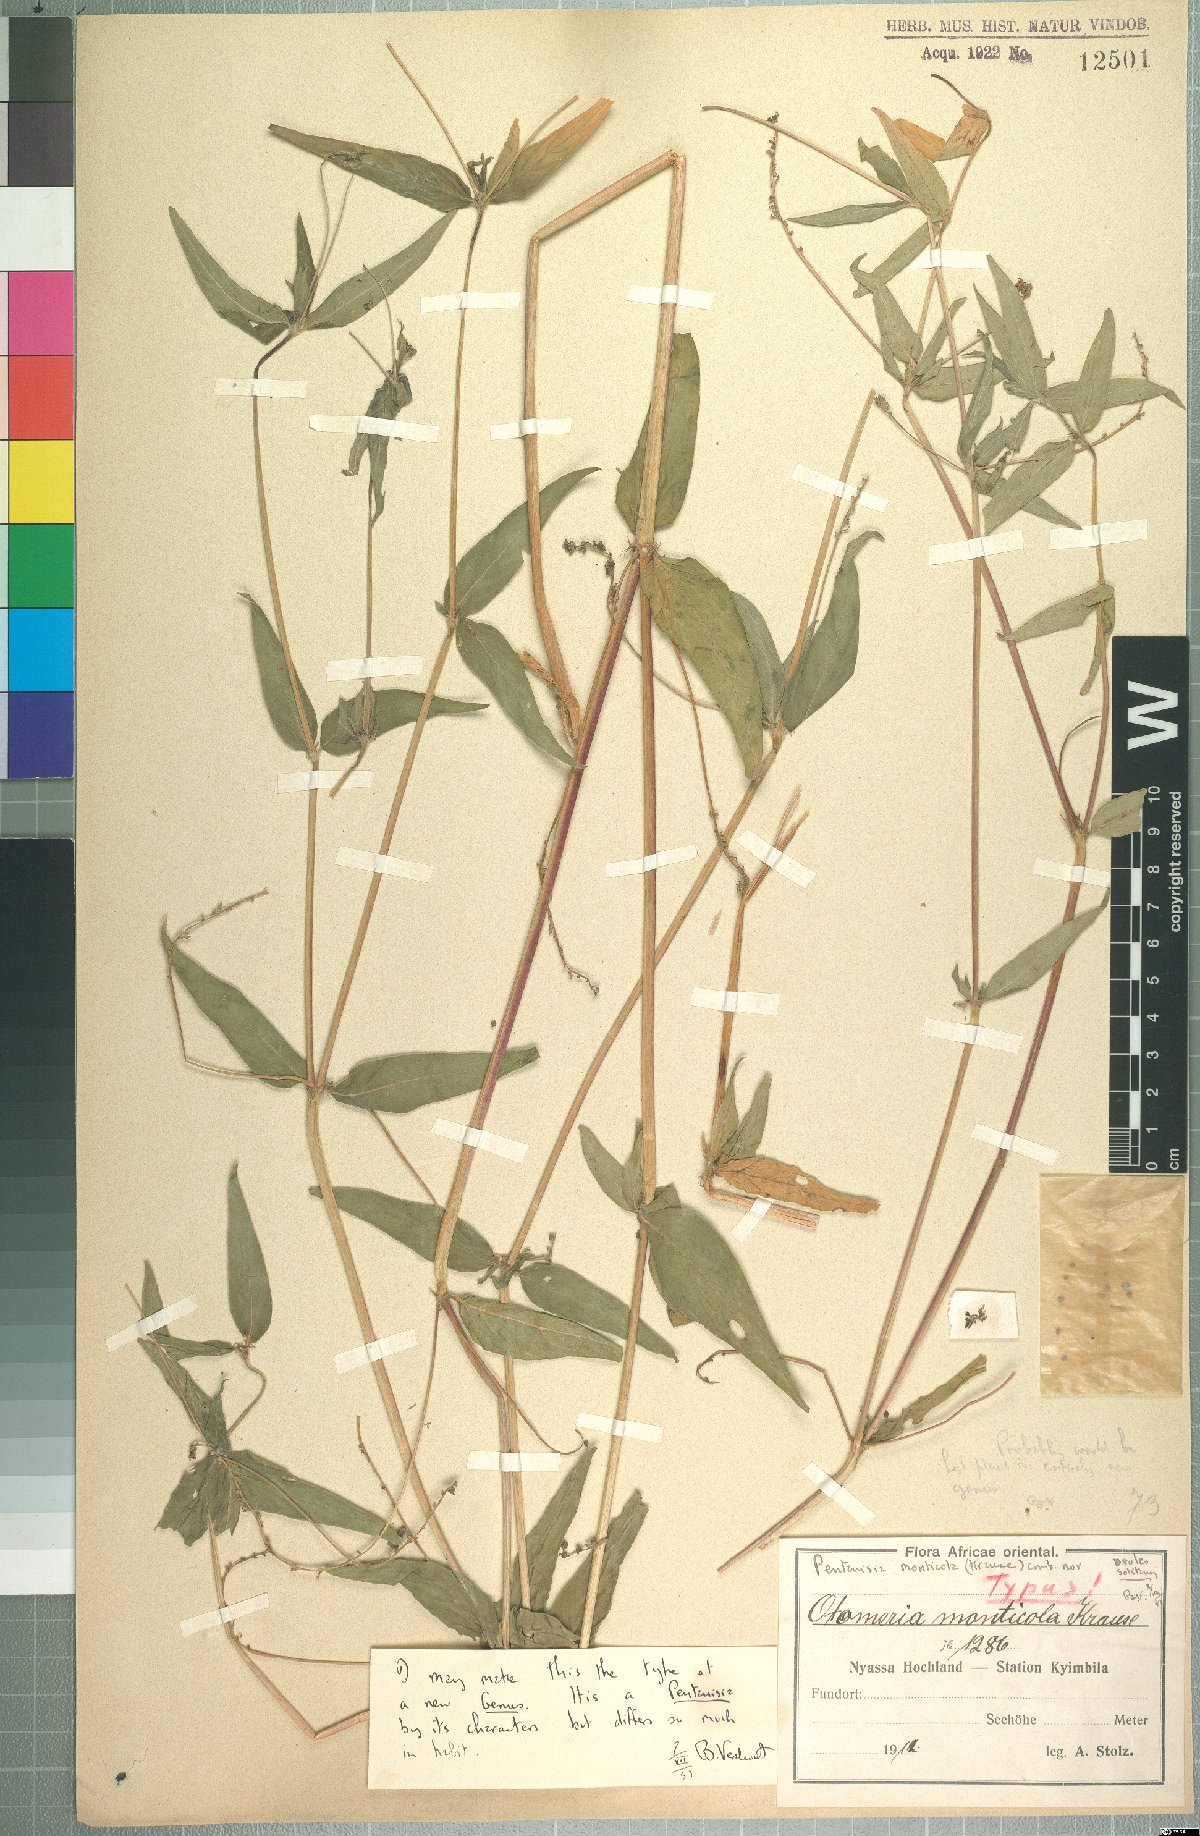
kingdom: Plantae
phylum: Tracheophyta
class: Magnoliopsida
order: Gentianales
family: Rubiaceae
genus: Pentanisia
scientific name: Pentanisia monticola
